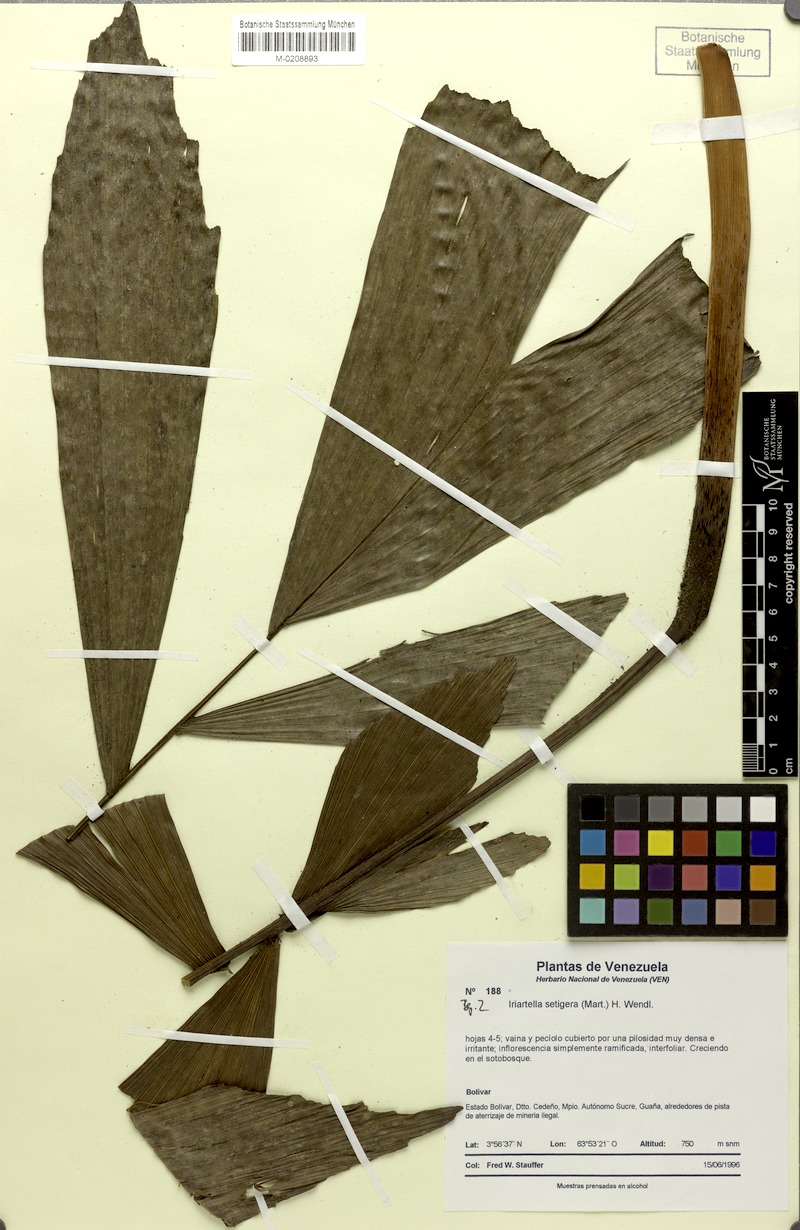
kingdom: Plantae
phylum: Tracheophyta
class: Liliopsida
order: Arecales
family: Arecaceae
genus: Iriartella
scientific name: Iriartella setigera
